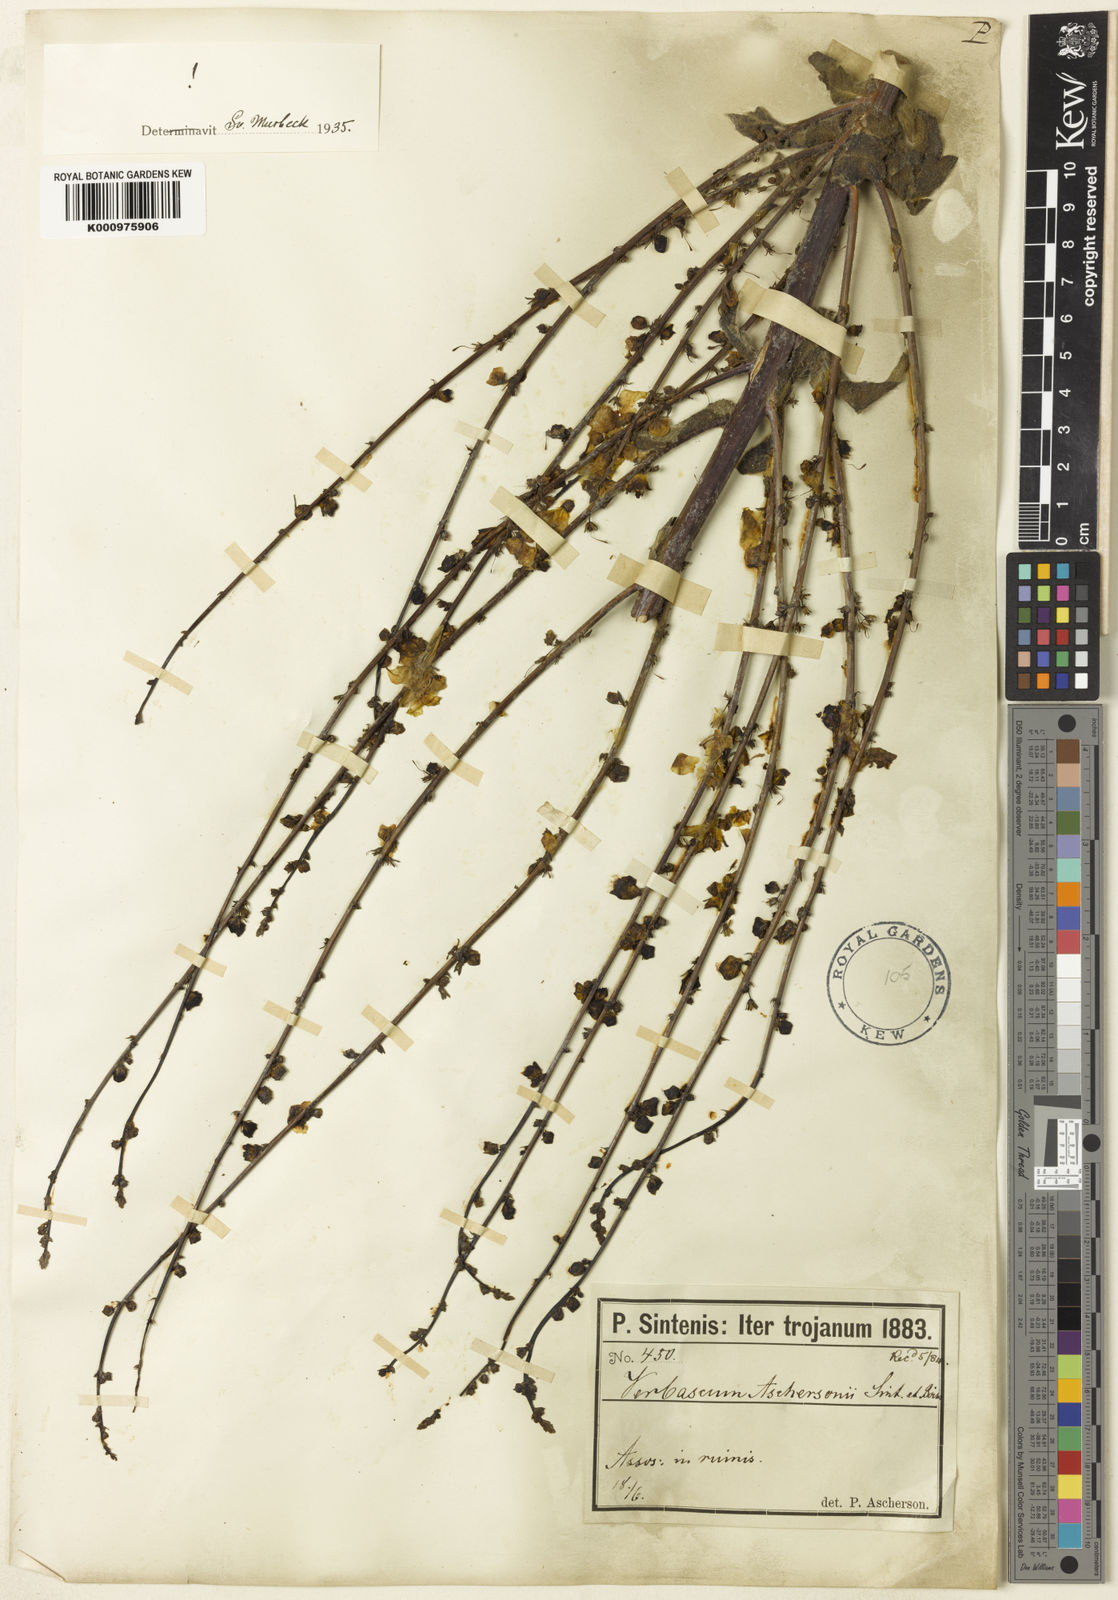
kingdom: Plantae
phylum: Tracheophyta
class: Magnoliopsida
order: Lamiales
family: Scrophulariaceae
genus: Verbascum
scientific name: Verbascum aschersonii
